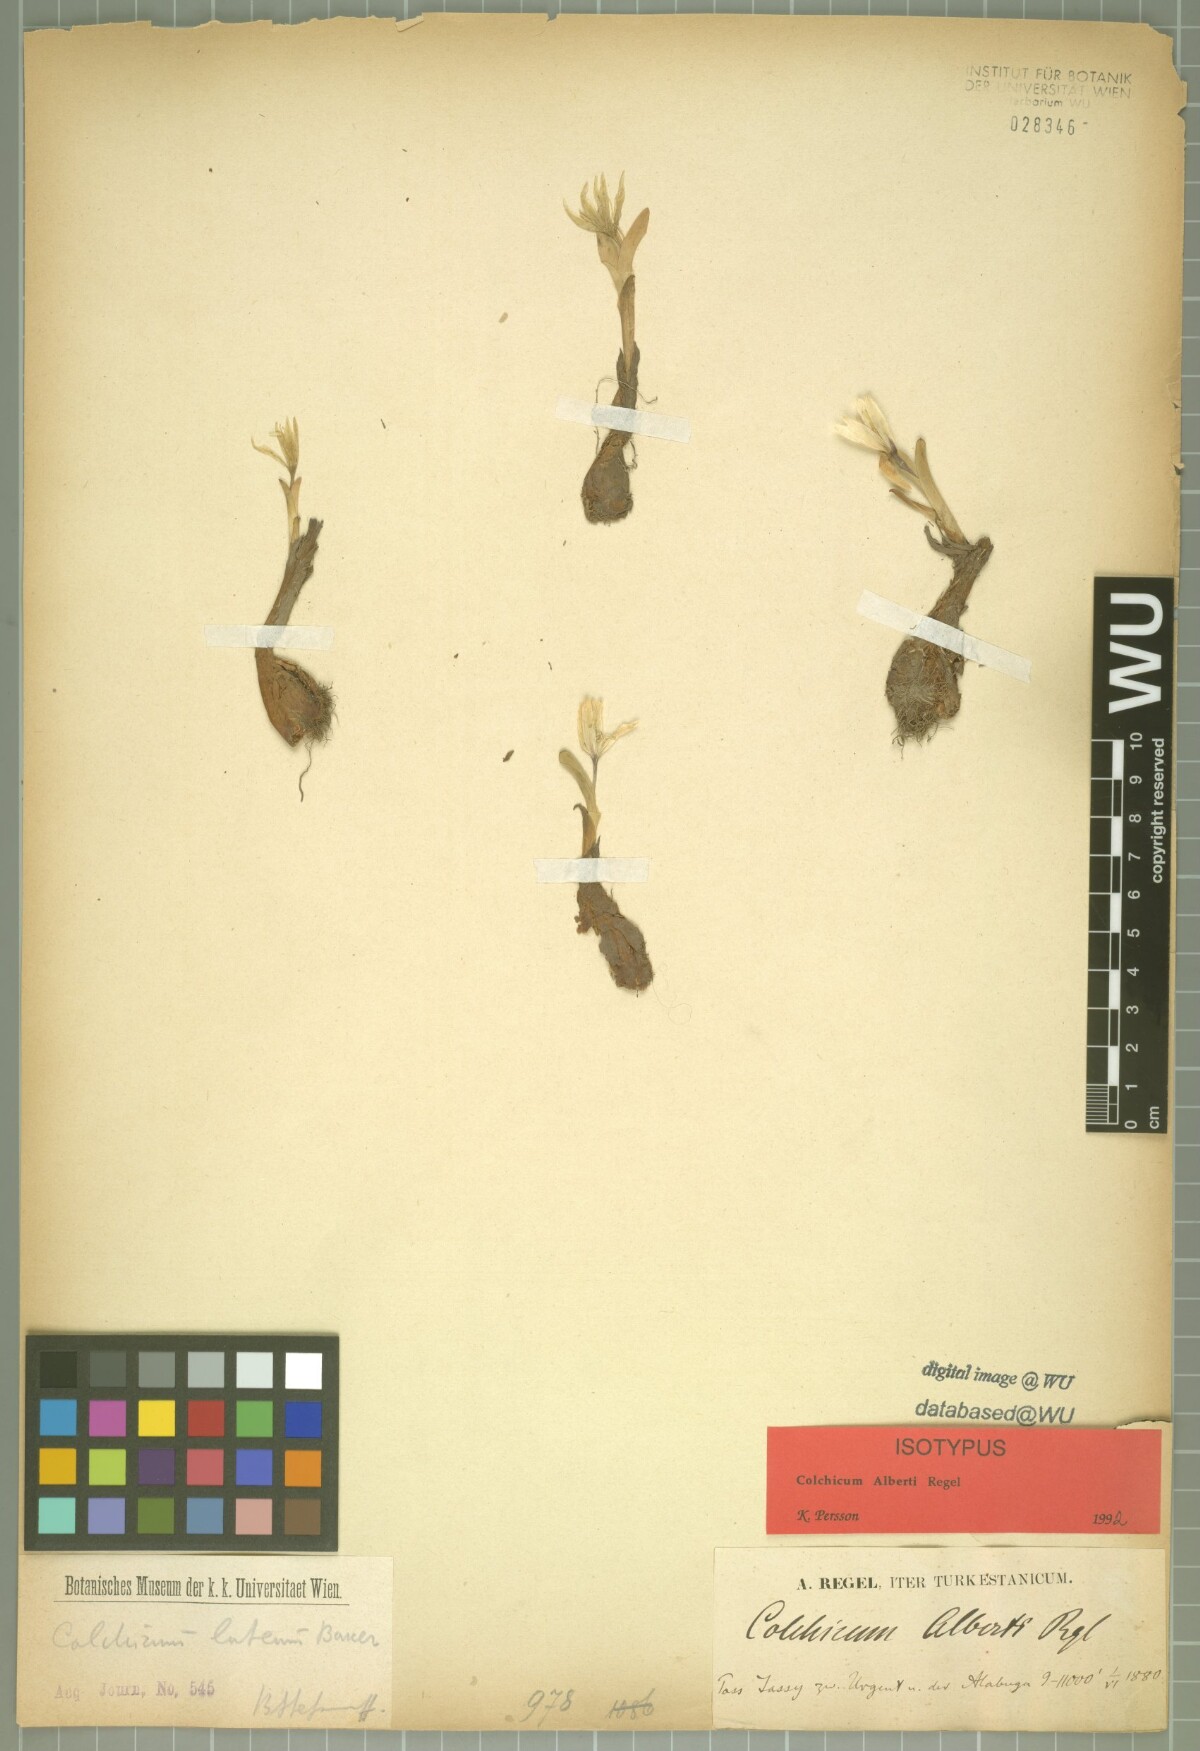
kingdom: Plantae
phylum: Tracheophyta
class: Liliopsida
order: Liliales
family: Colchicaceae
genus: Colchicum
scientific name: Colchicum alberti
